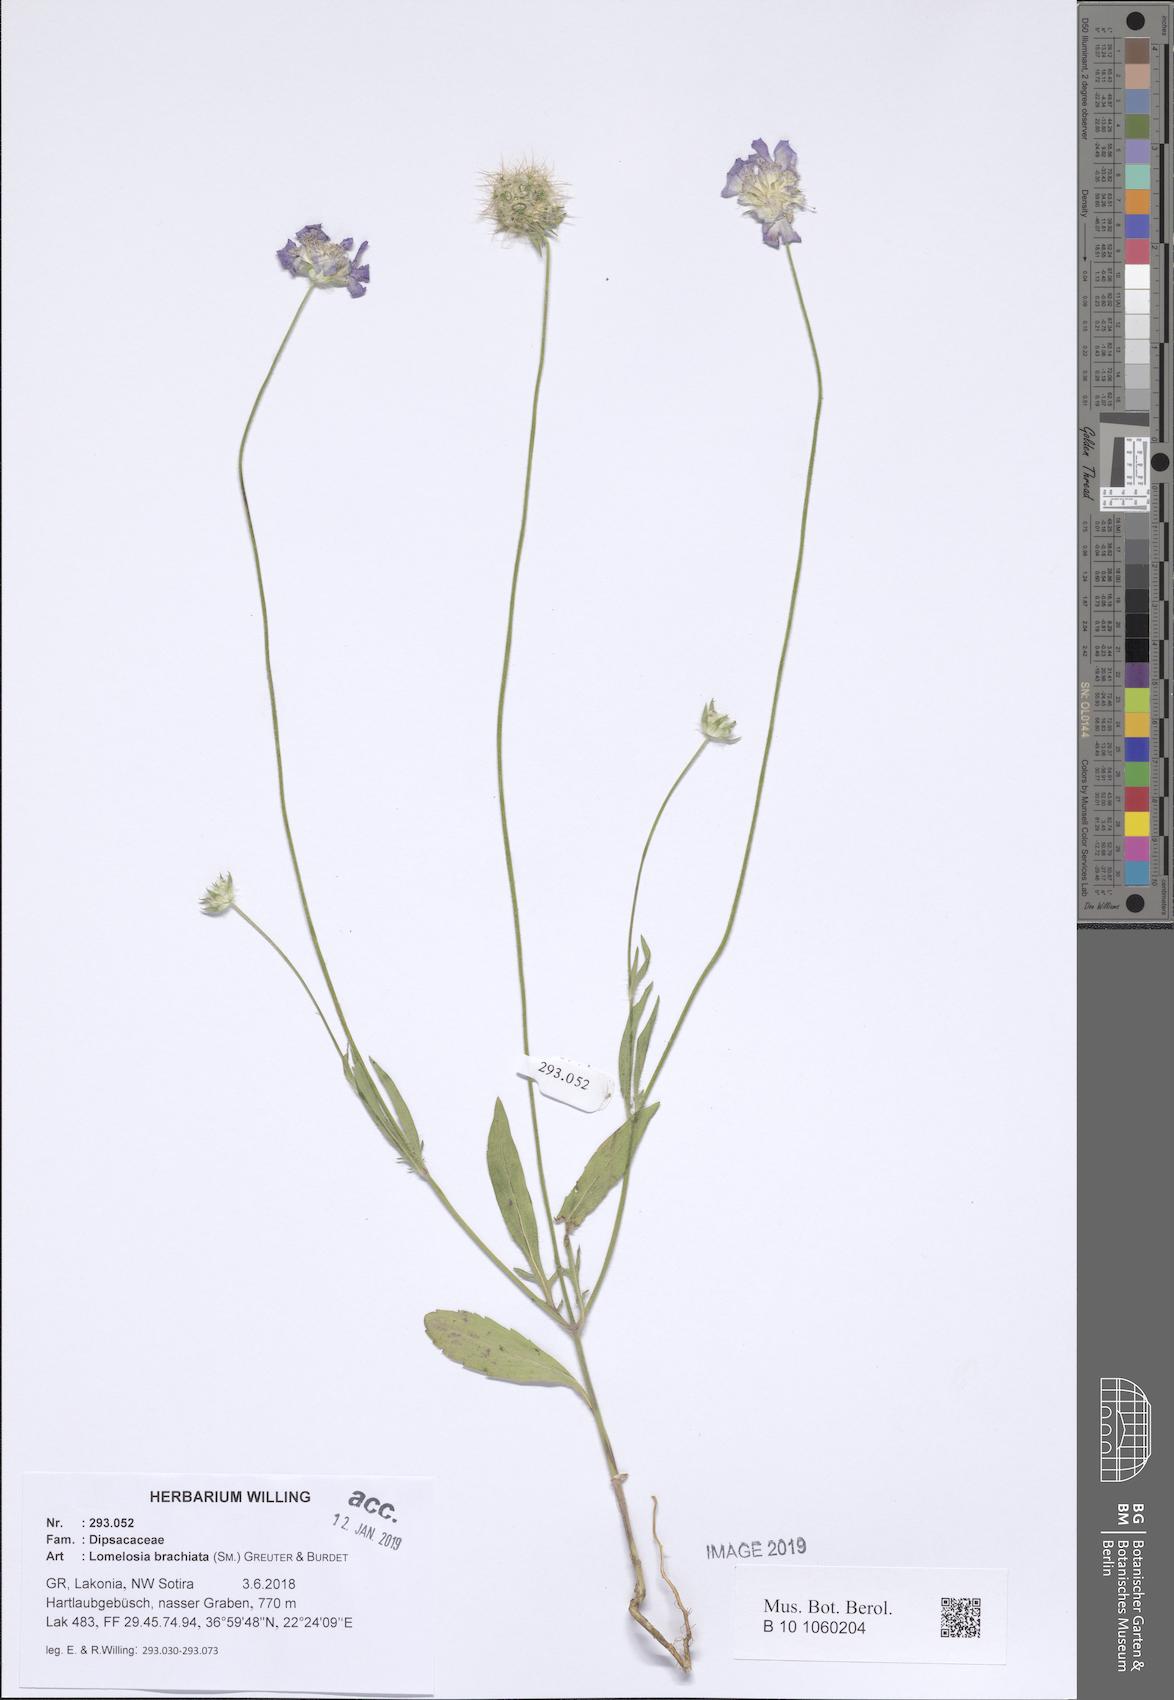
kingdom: Plantae
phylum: Tracheophyta
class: Magnoliopsida
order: Dipsacales
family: Caprifoliaceae
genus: Lomelosia
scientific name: Lomelosia brachiata
